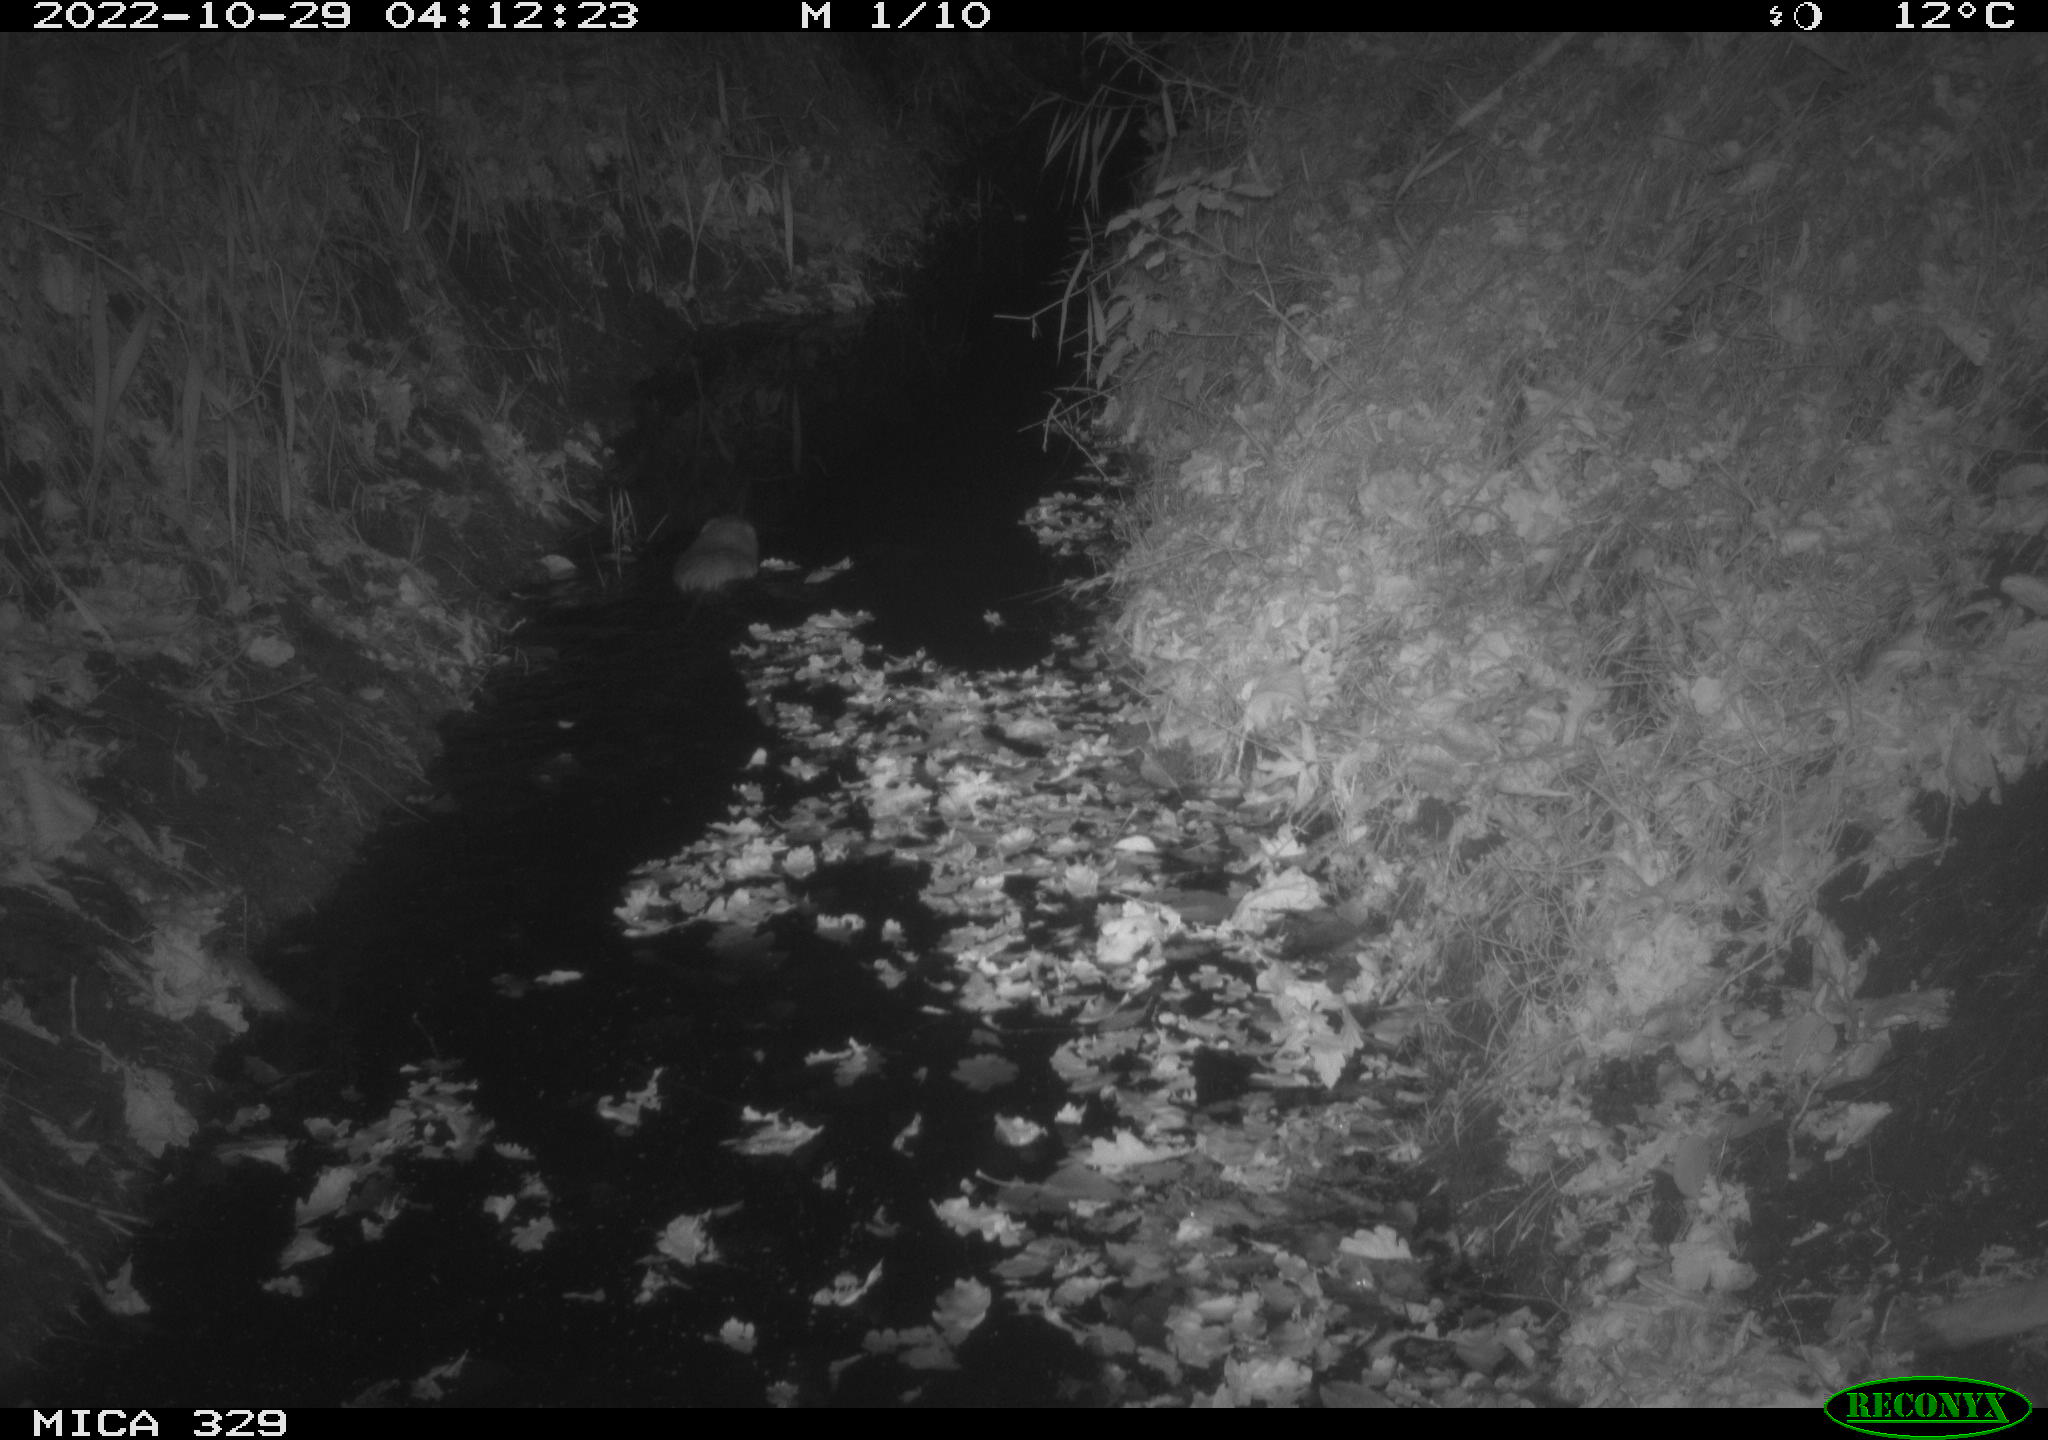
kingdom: Animalia
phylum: Chordata
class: Mammalia
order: Rodentia
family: Cricetidae
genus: Ondatra
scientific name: Ondatra zibethicus
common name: Muskrat
